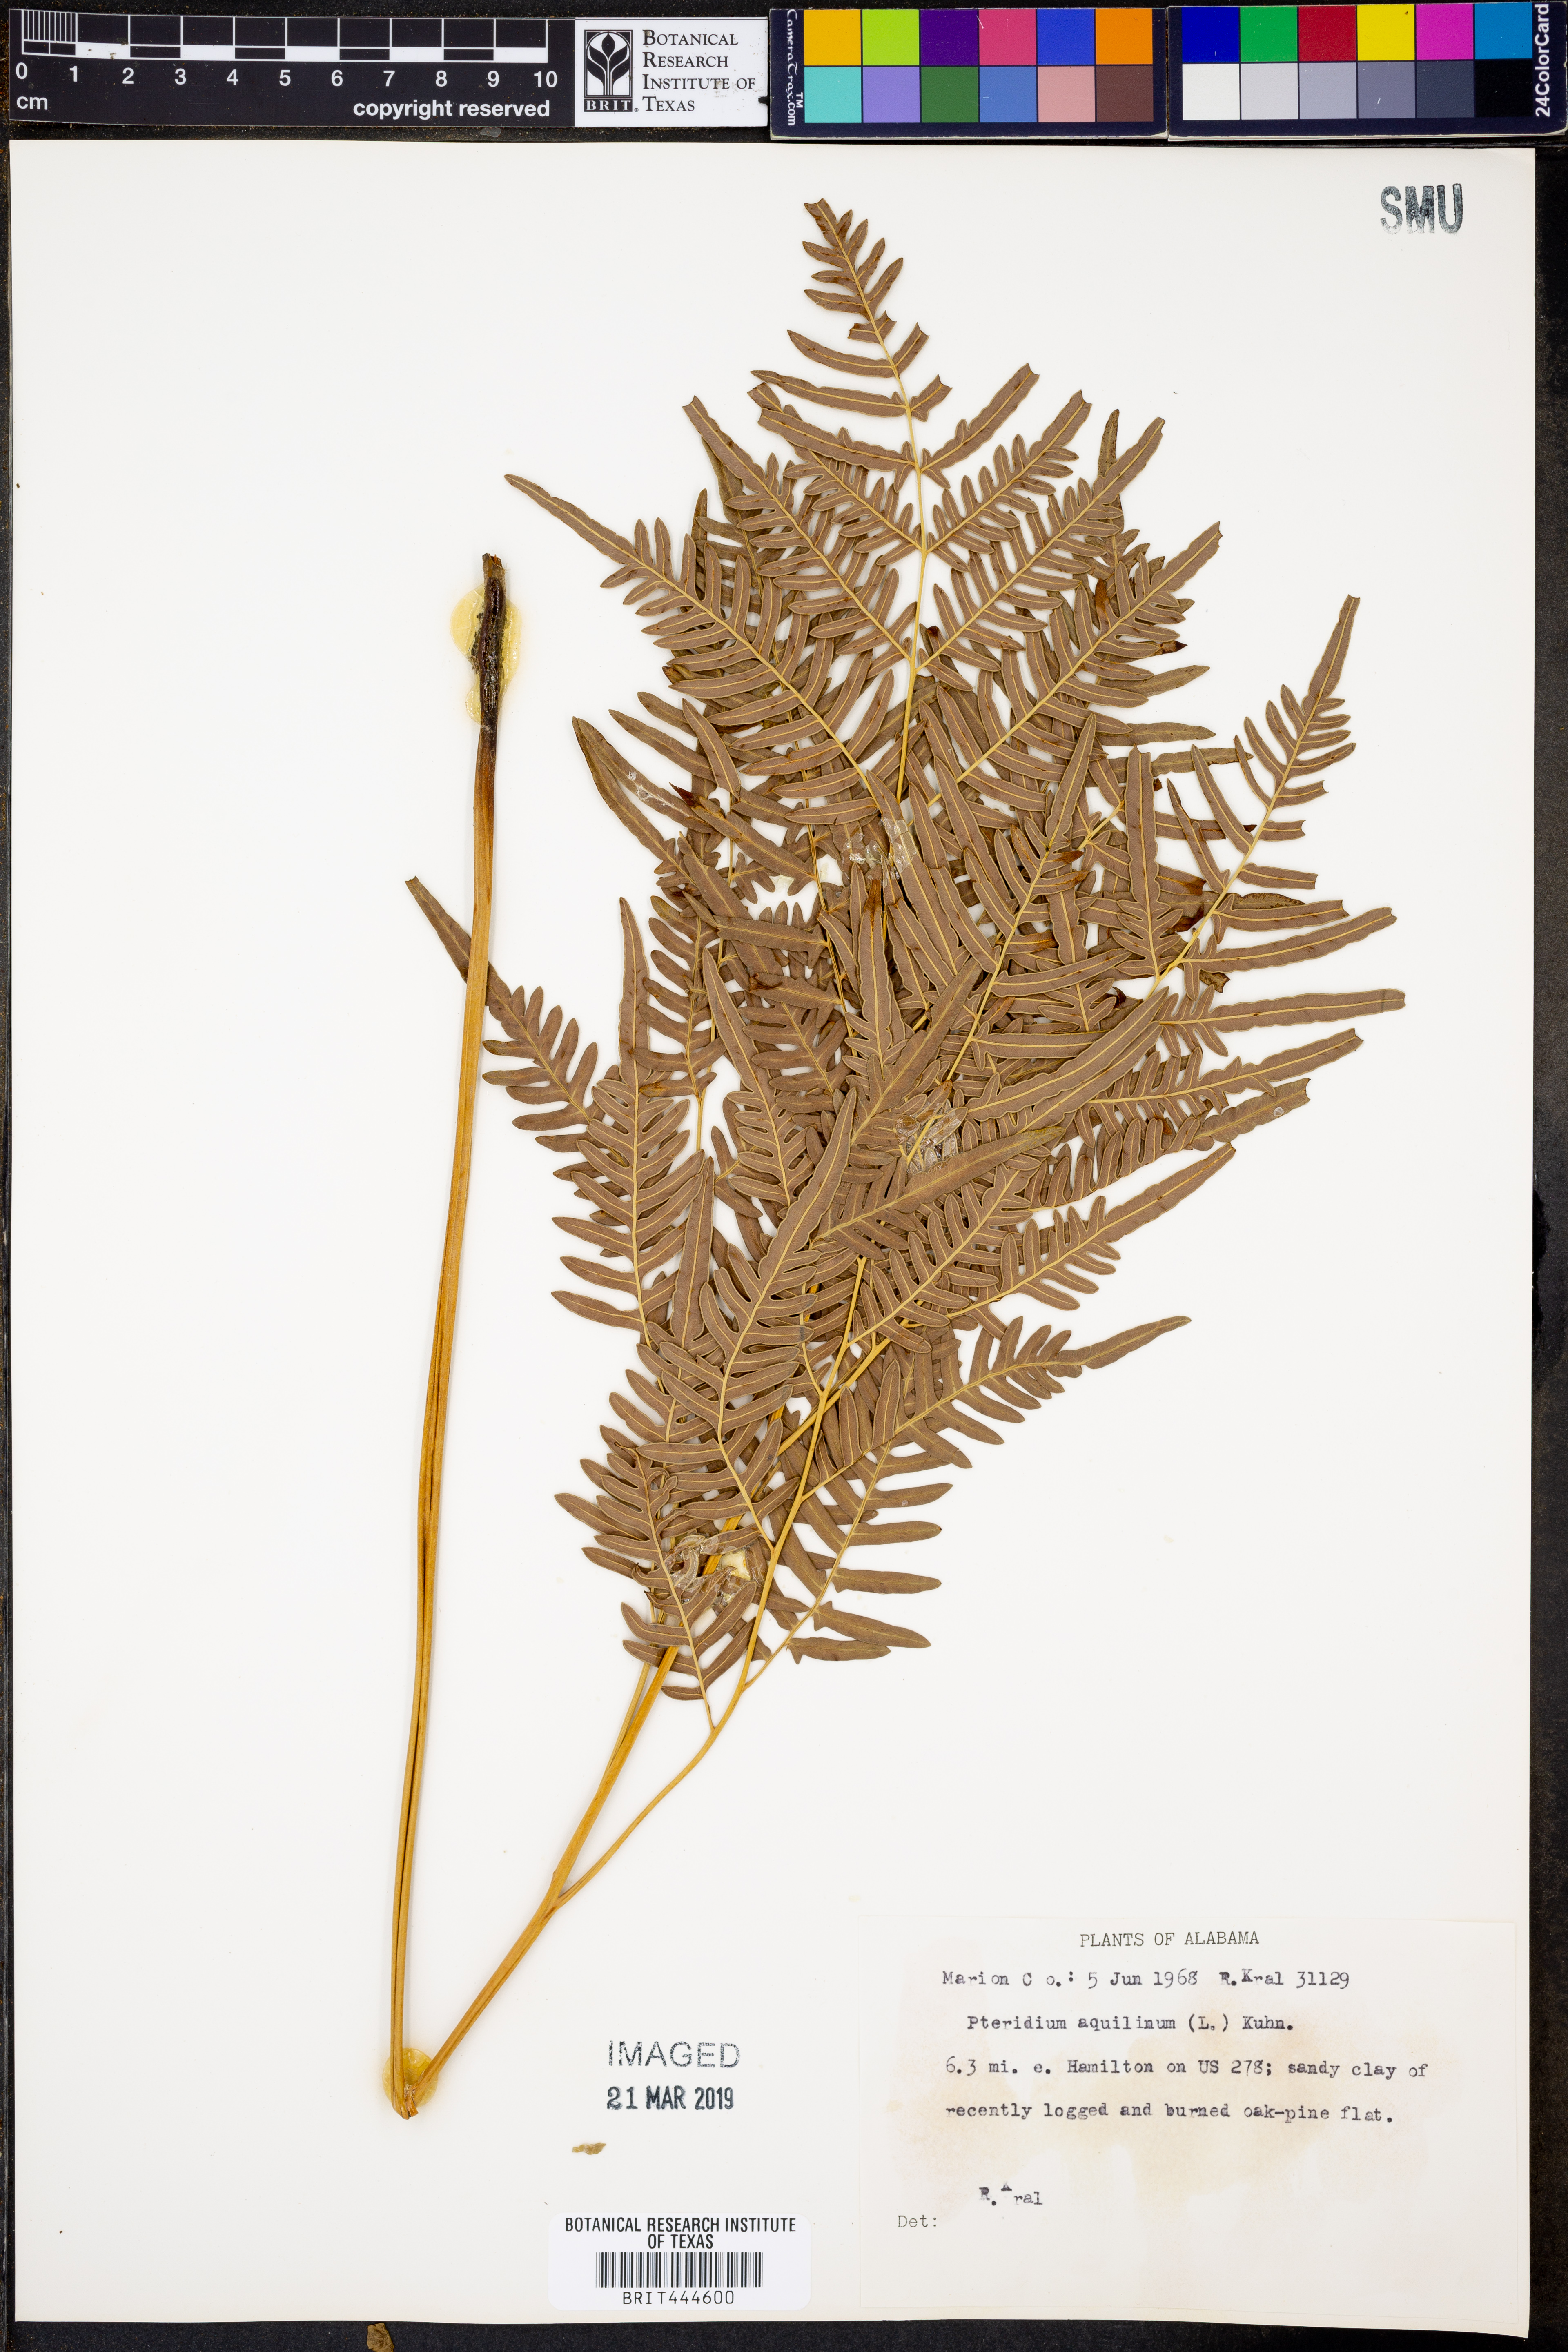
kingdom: Plantae
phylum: Tracheophyta
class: Polypodiopsida
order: Polypodiales
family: Dennstaedtiaceae
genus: Pteridium
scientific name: Pteridium aquilinum
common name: Bracken
